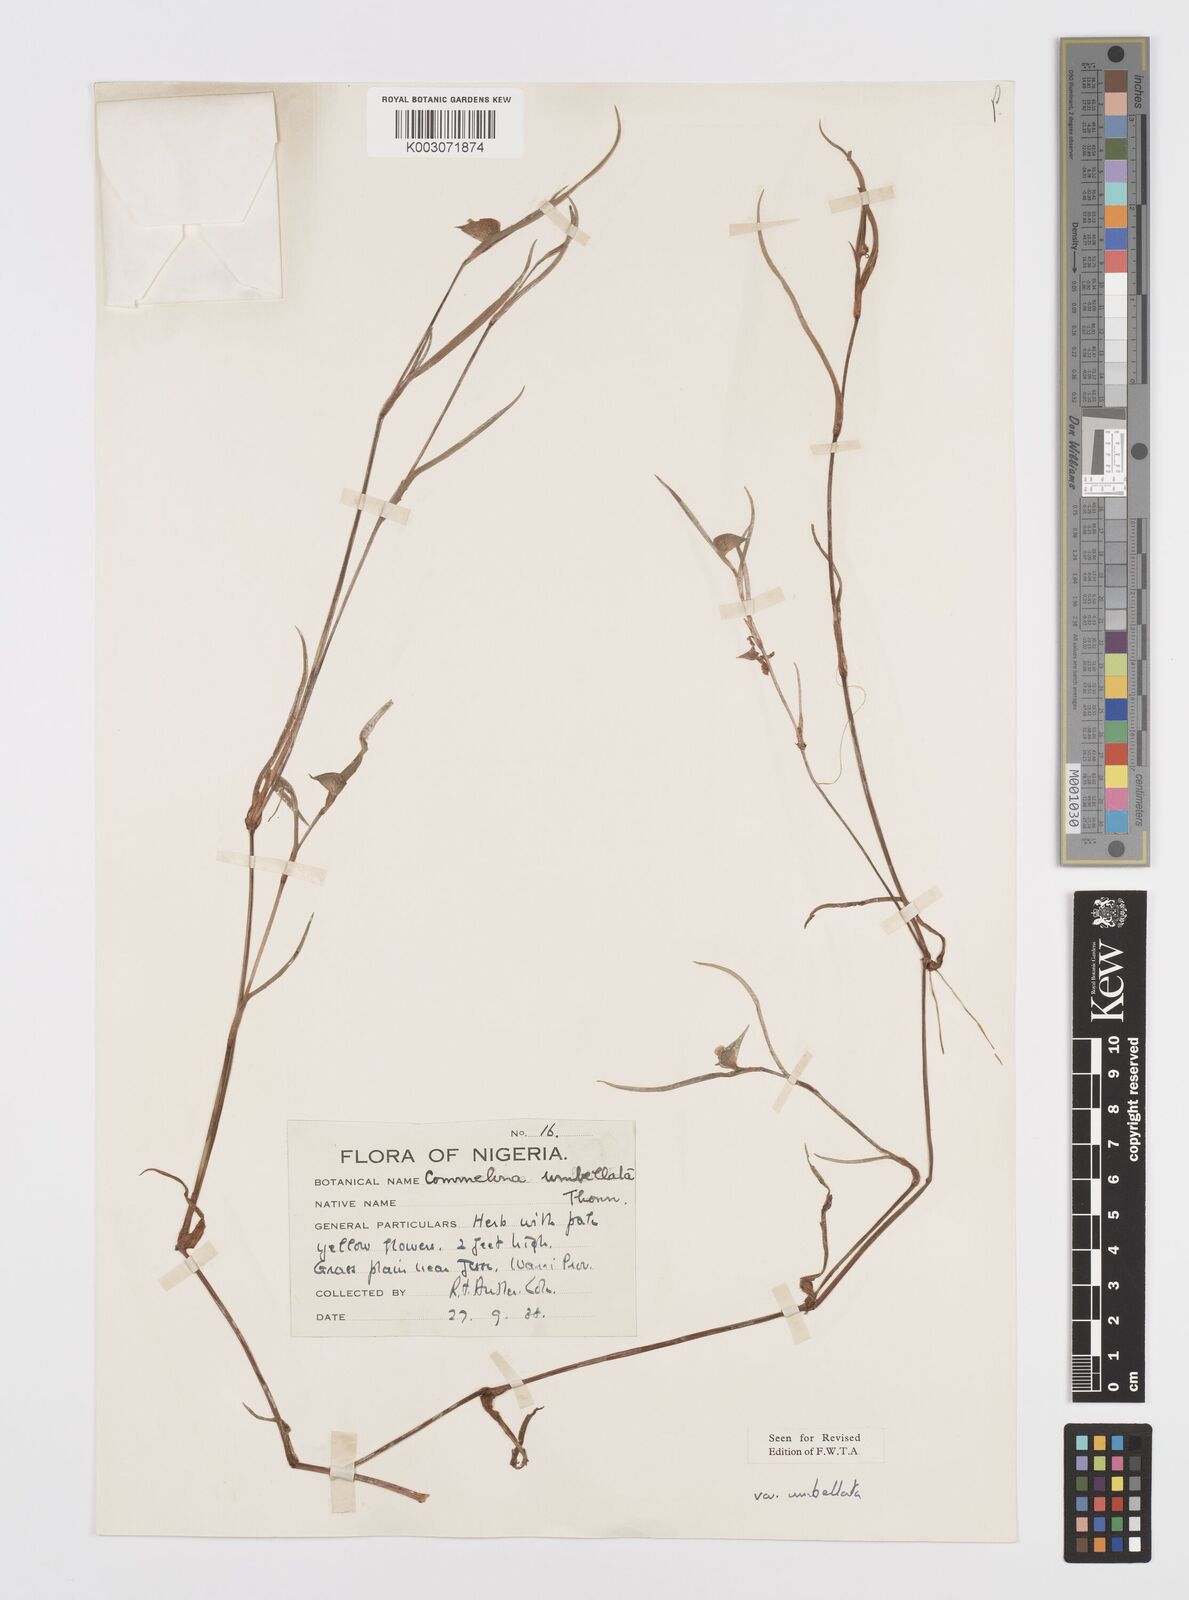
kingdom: Plantae
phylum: Tracheophyta
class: Liliopsida
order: Commelinales
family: Commelinaceae
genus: Commelina
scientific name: Commelina
